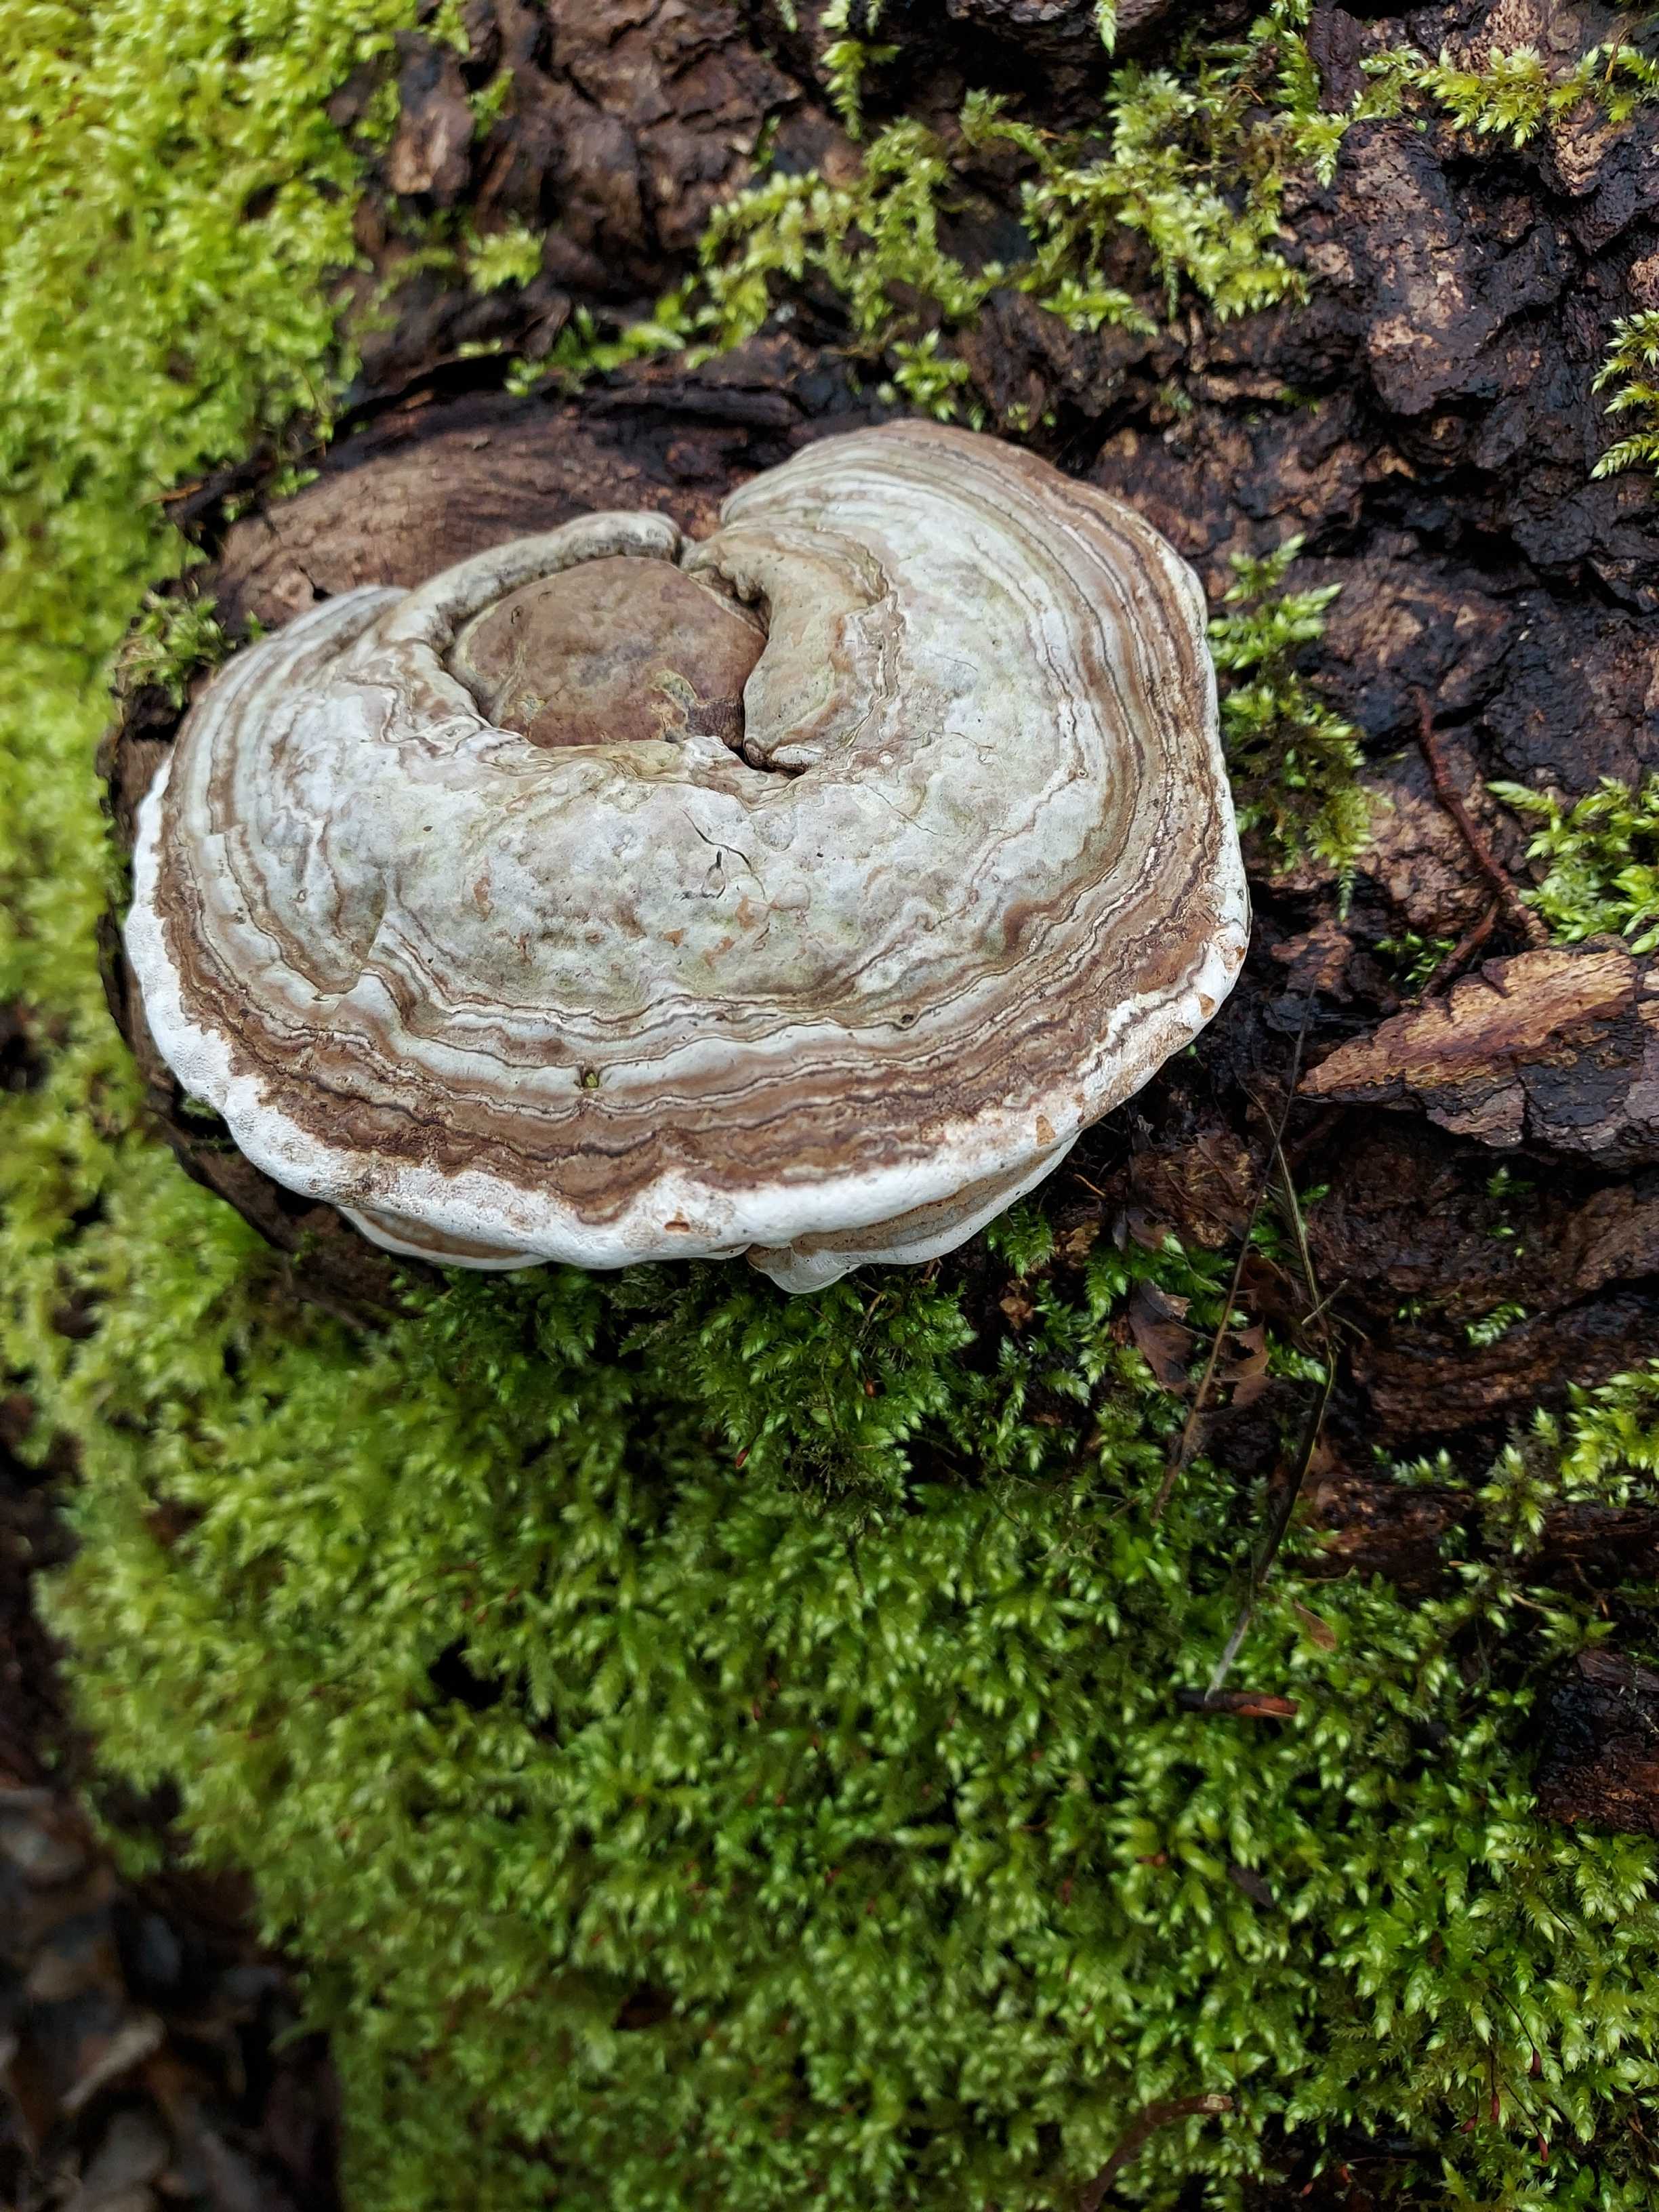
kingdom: Fungi
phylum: Basidiomycota
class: Agaricomycetes
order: Polyporales
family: Polyporaceae
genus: Ganoderma
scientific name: Ganoderma applanatum
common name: flad lakporesvamp
